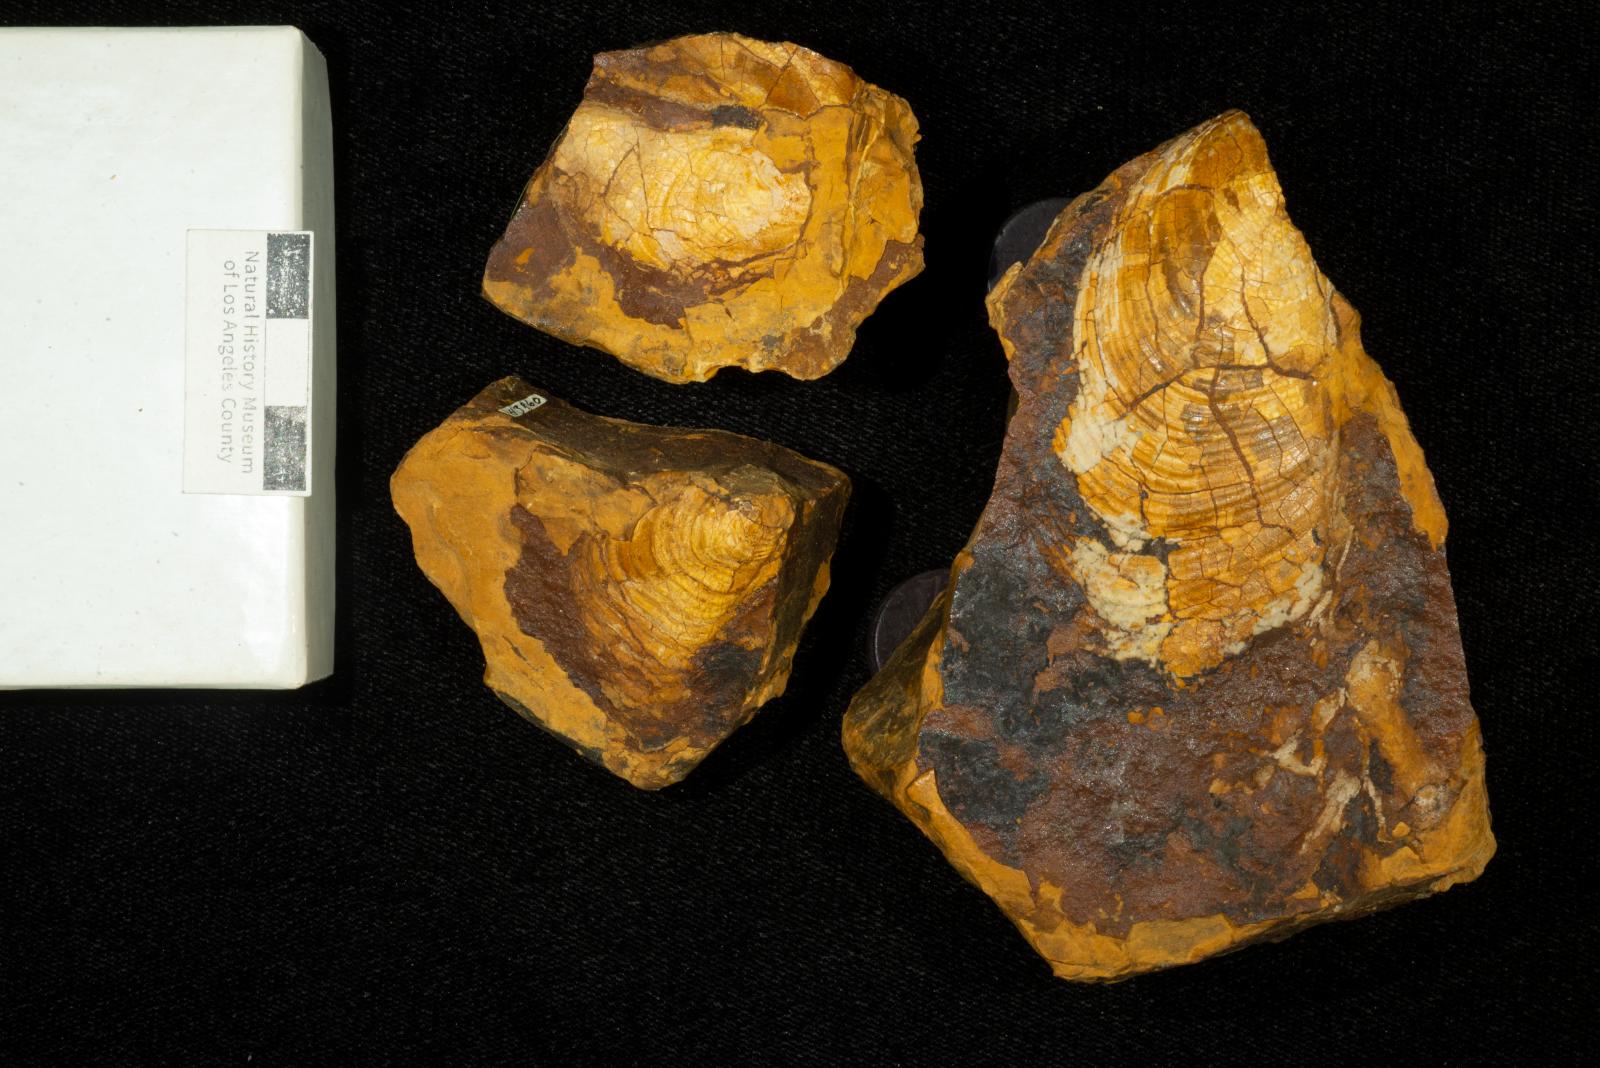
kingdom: Animalia
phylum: Mollusca
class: Bivalvia
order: Myalinida
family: Inoceramidae
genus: Sphenoceramus
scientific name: Sphenoceramus Inoceramus orientalis
